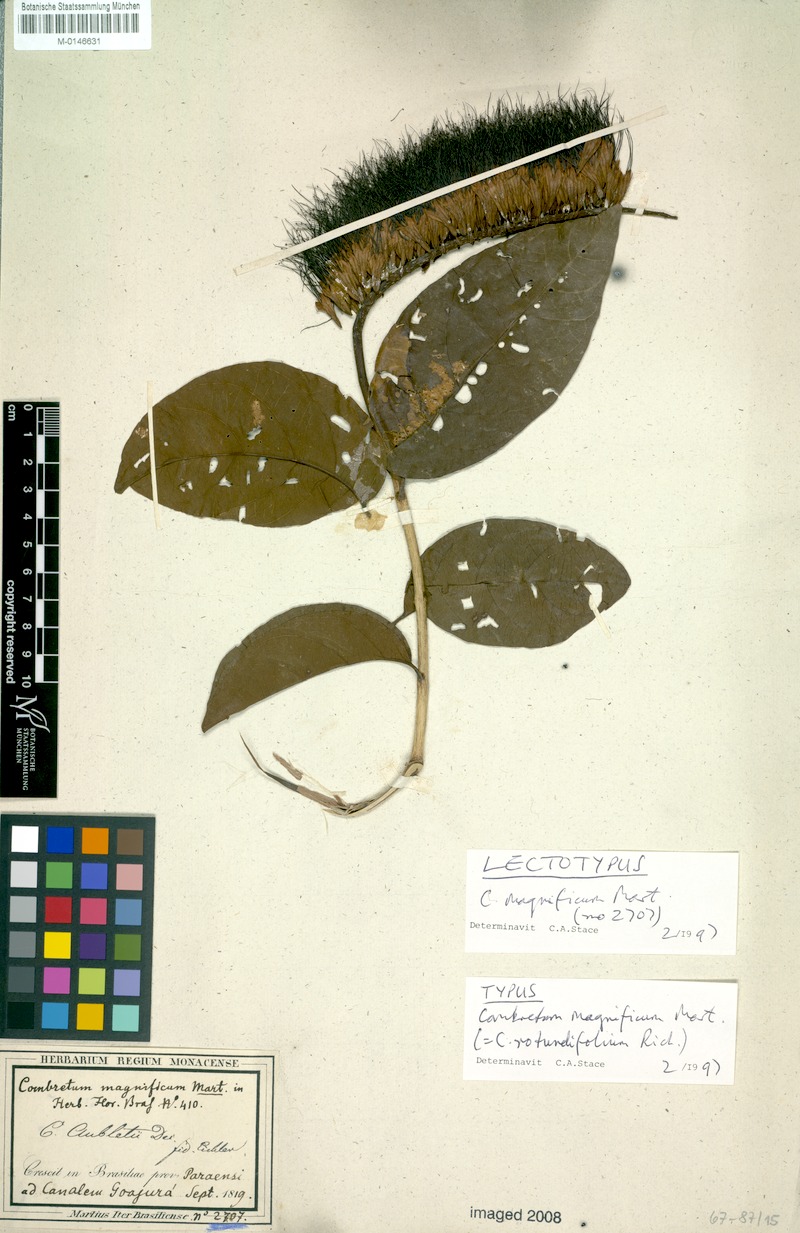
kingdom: Plantae
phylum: Tracheophyta
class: Magnoliopsida
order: Myrtales
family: Combretaceae
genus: Combretum
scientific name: Combretum rotundifolium
